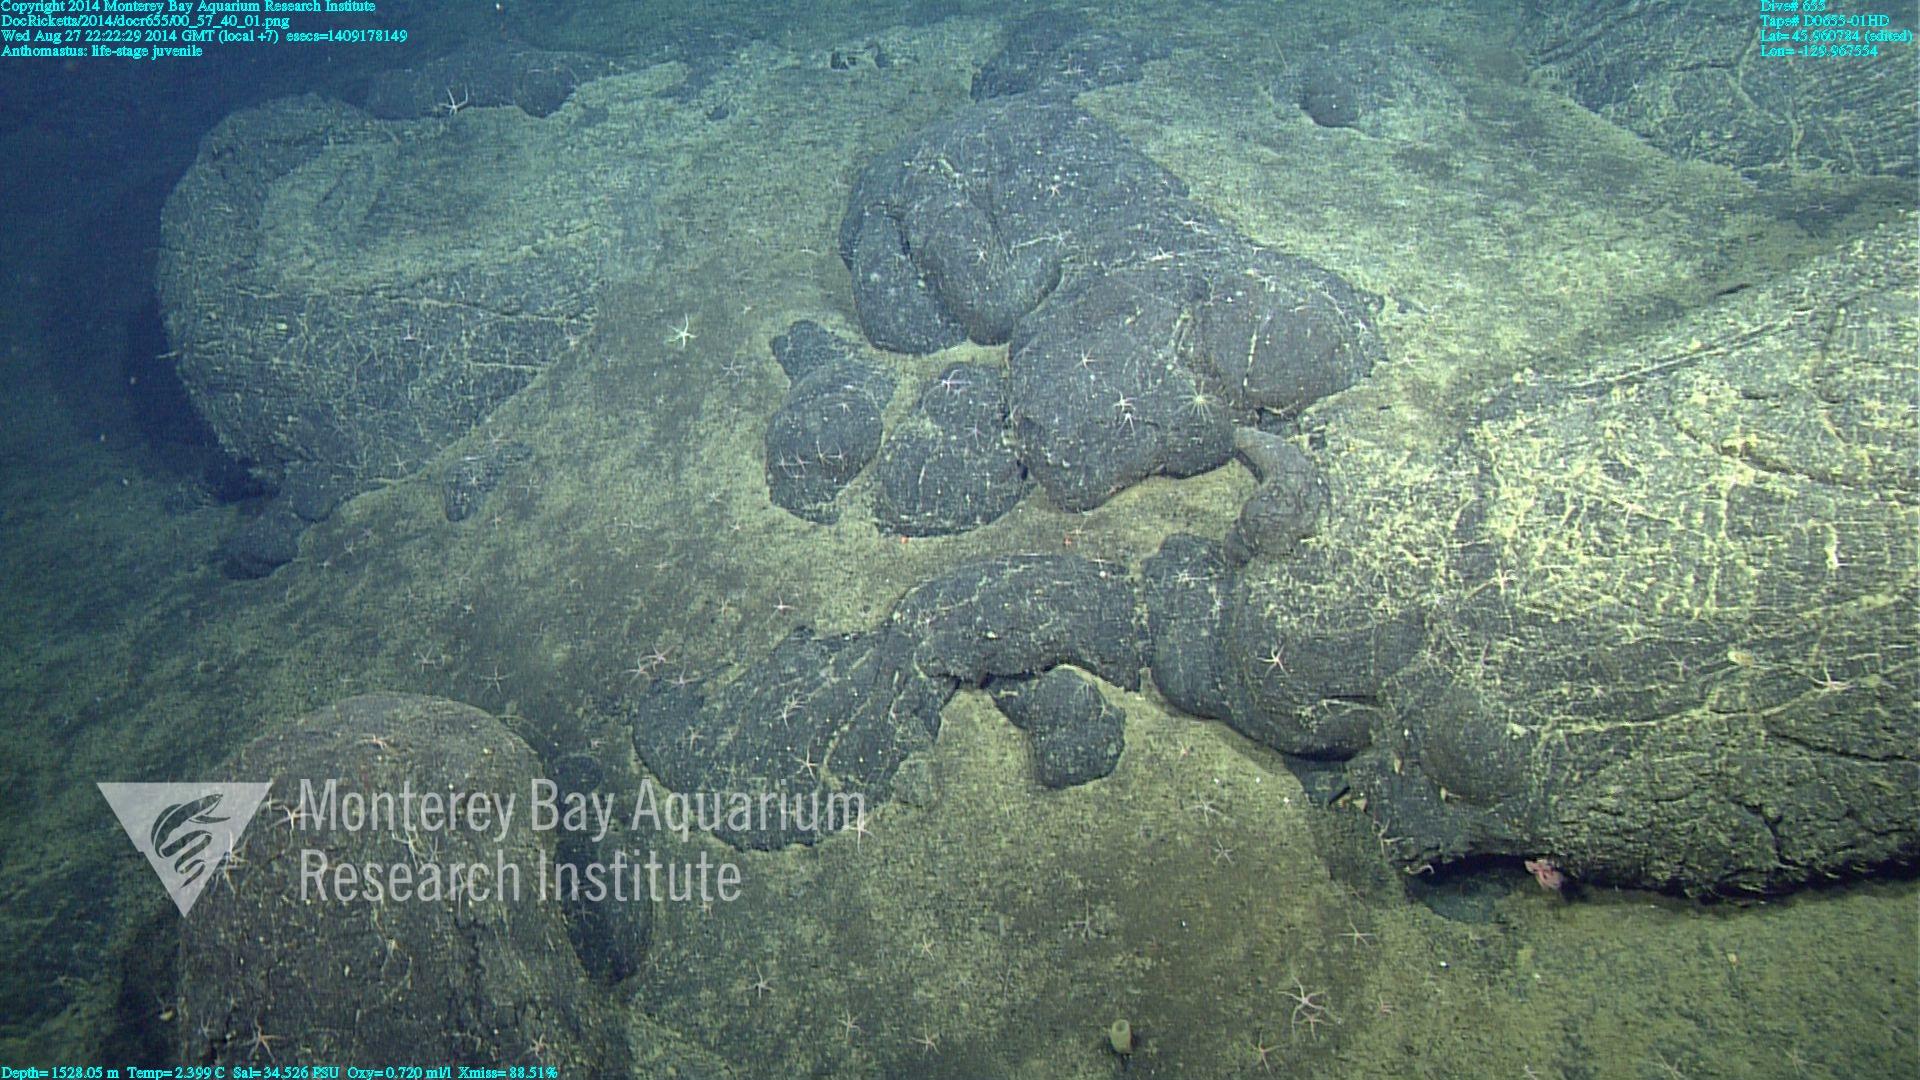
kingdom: Animalia
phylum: Cnidaria
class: Anthozoa
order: Scleralcyonacea
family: Coralliidae
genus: Heteropolypus
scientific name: Heteropolypus
